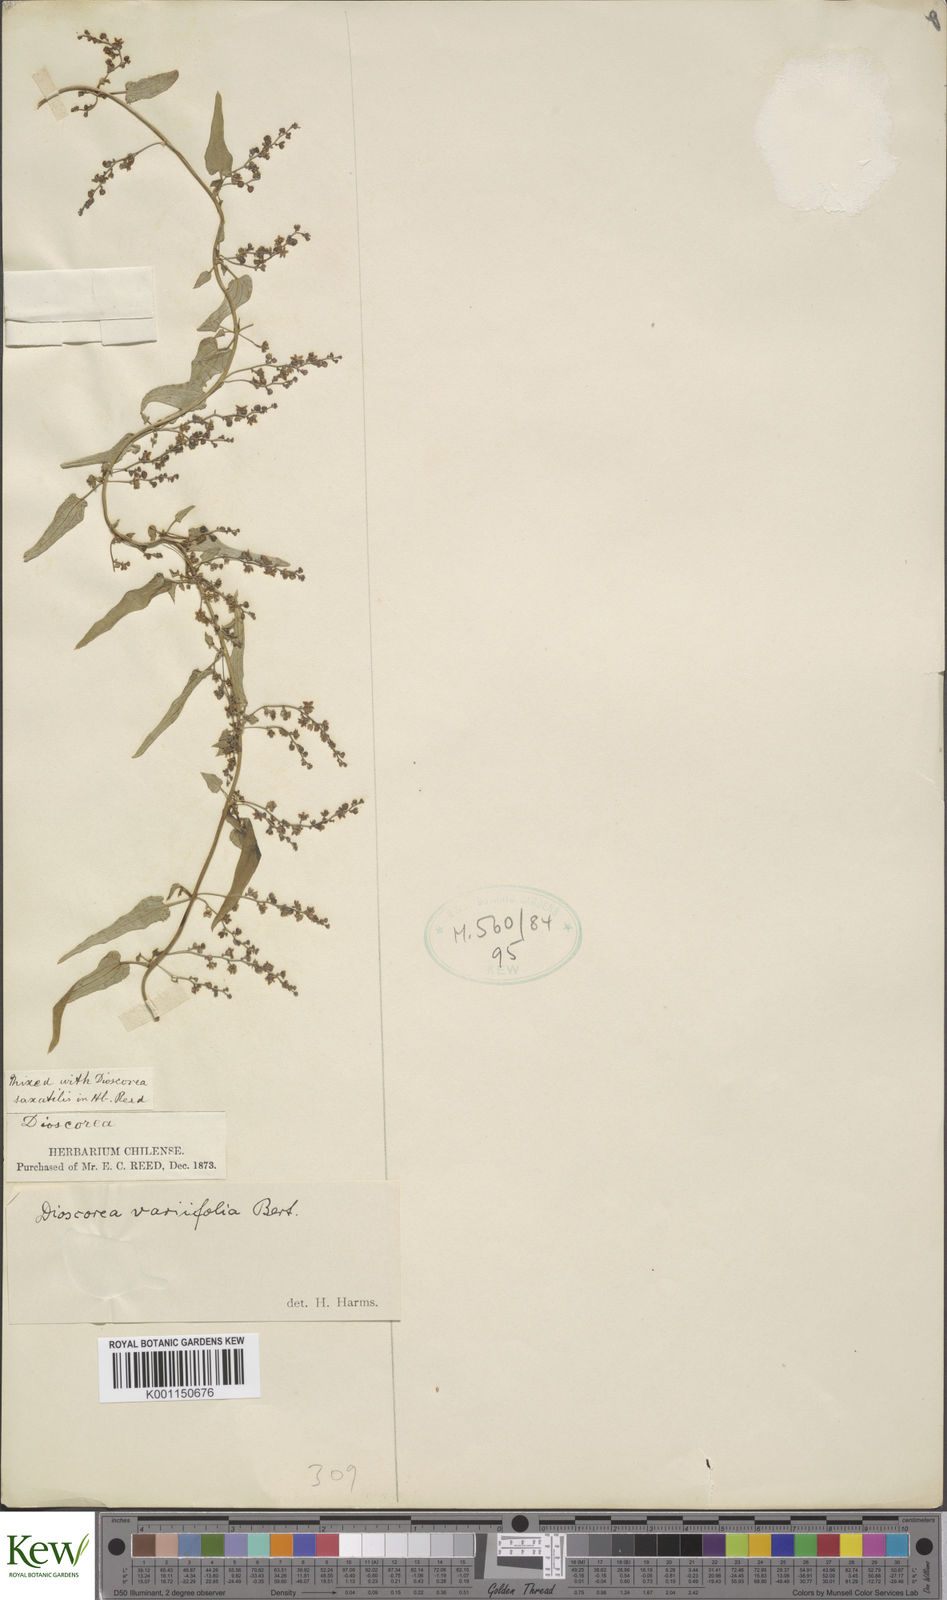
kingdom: Plantae
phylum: Tracheophyta
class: Liliopsida
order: Dioscoreales
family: Dioscoreaceae
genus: Dioscorea
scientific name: Dioscorea variifolia
